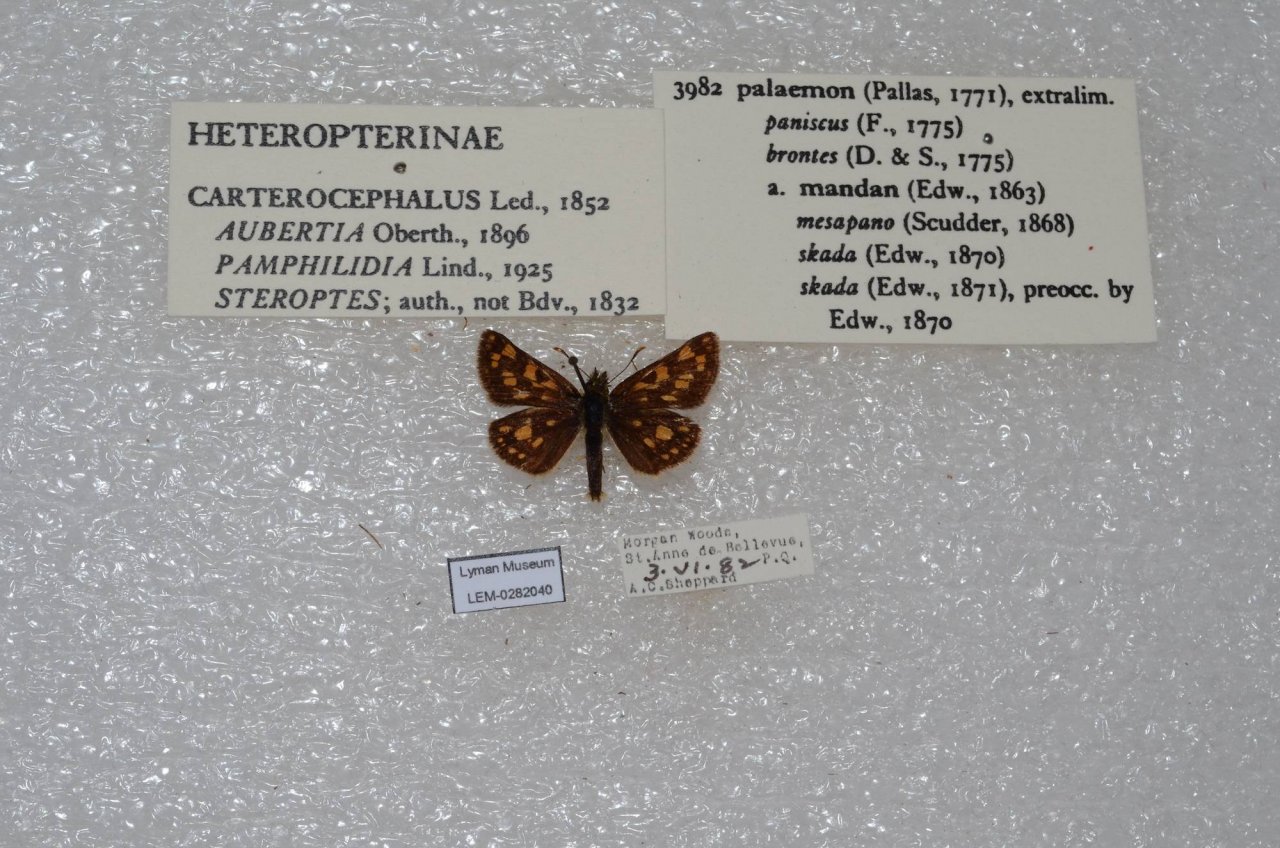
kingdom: Animalia
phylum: Arthropoda
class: Insecta
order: Lepidoptera
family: Hesperiidae
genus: Carterocephalus
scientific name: Carterocephalus palaemon
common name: Chequered Skipper
